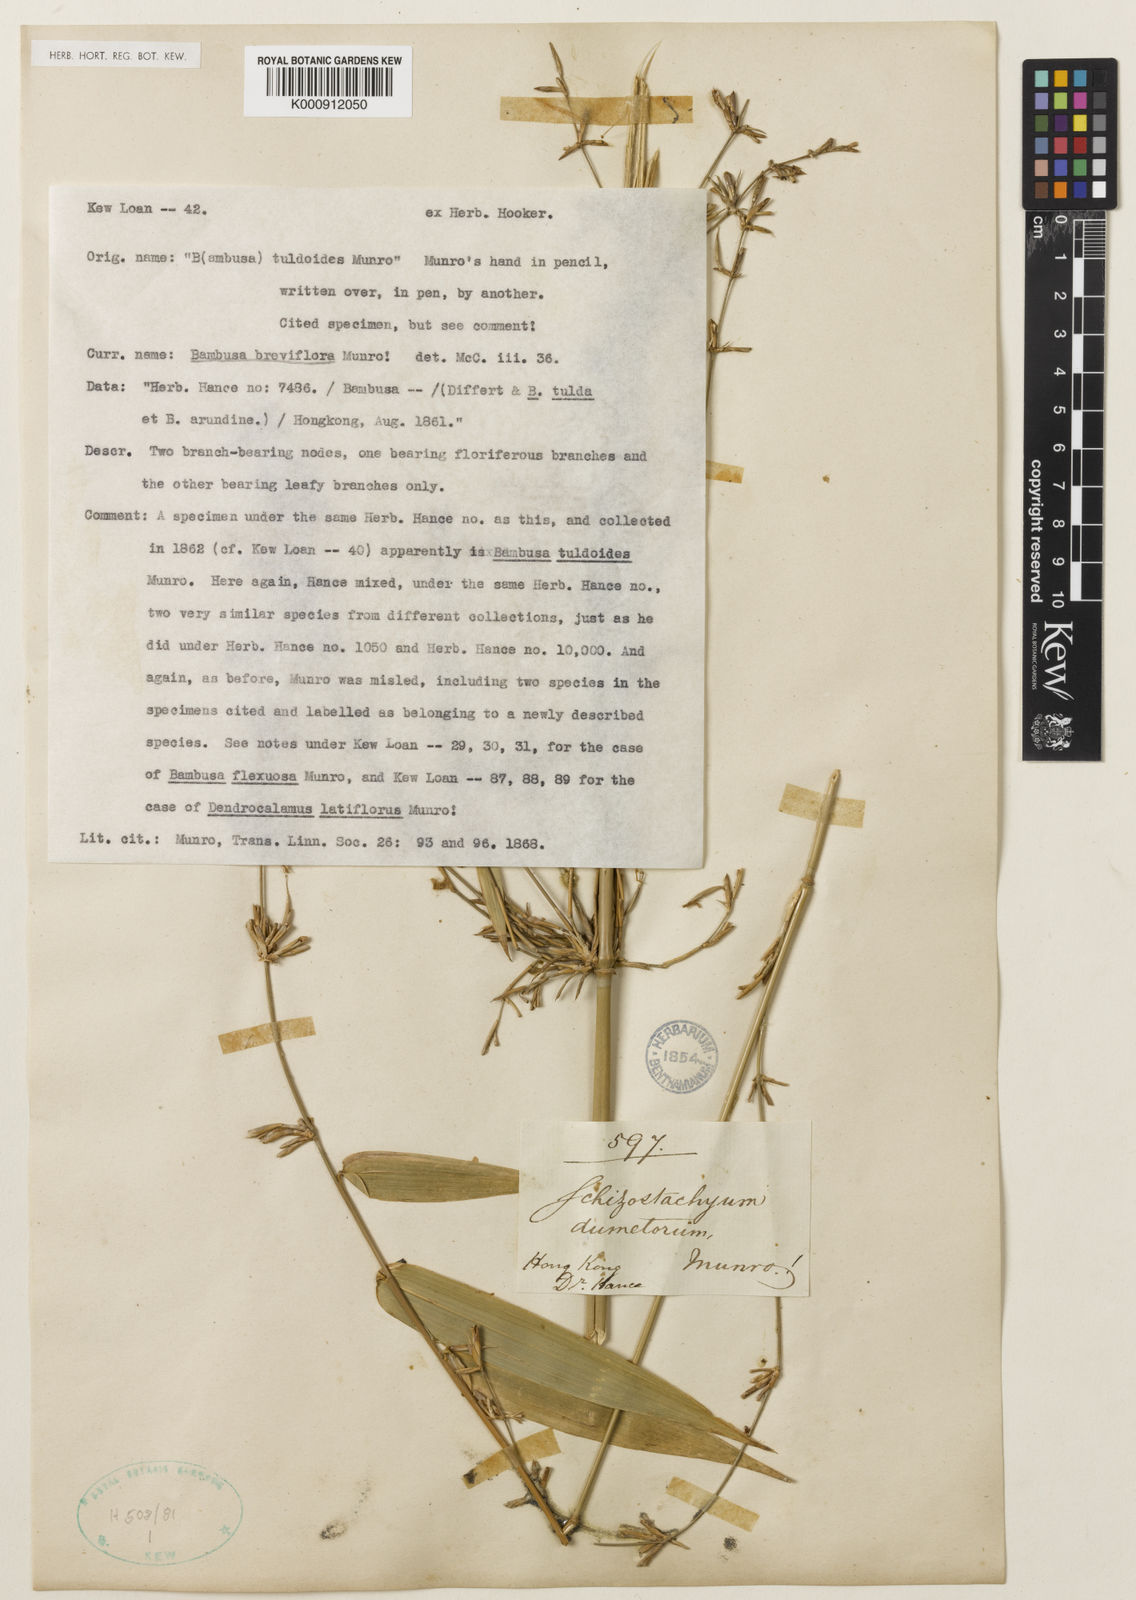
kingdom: Plantae
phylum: Tracheophyta
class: Liliopsida
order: Poales
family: Poaceae
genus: Schizostachyum
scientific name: Schizostachyum dumetorum
